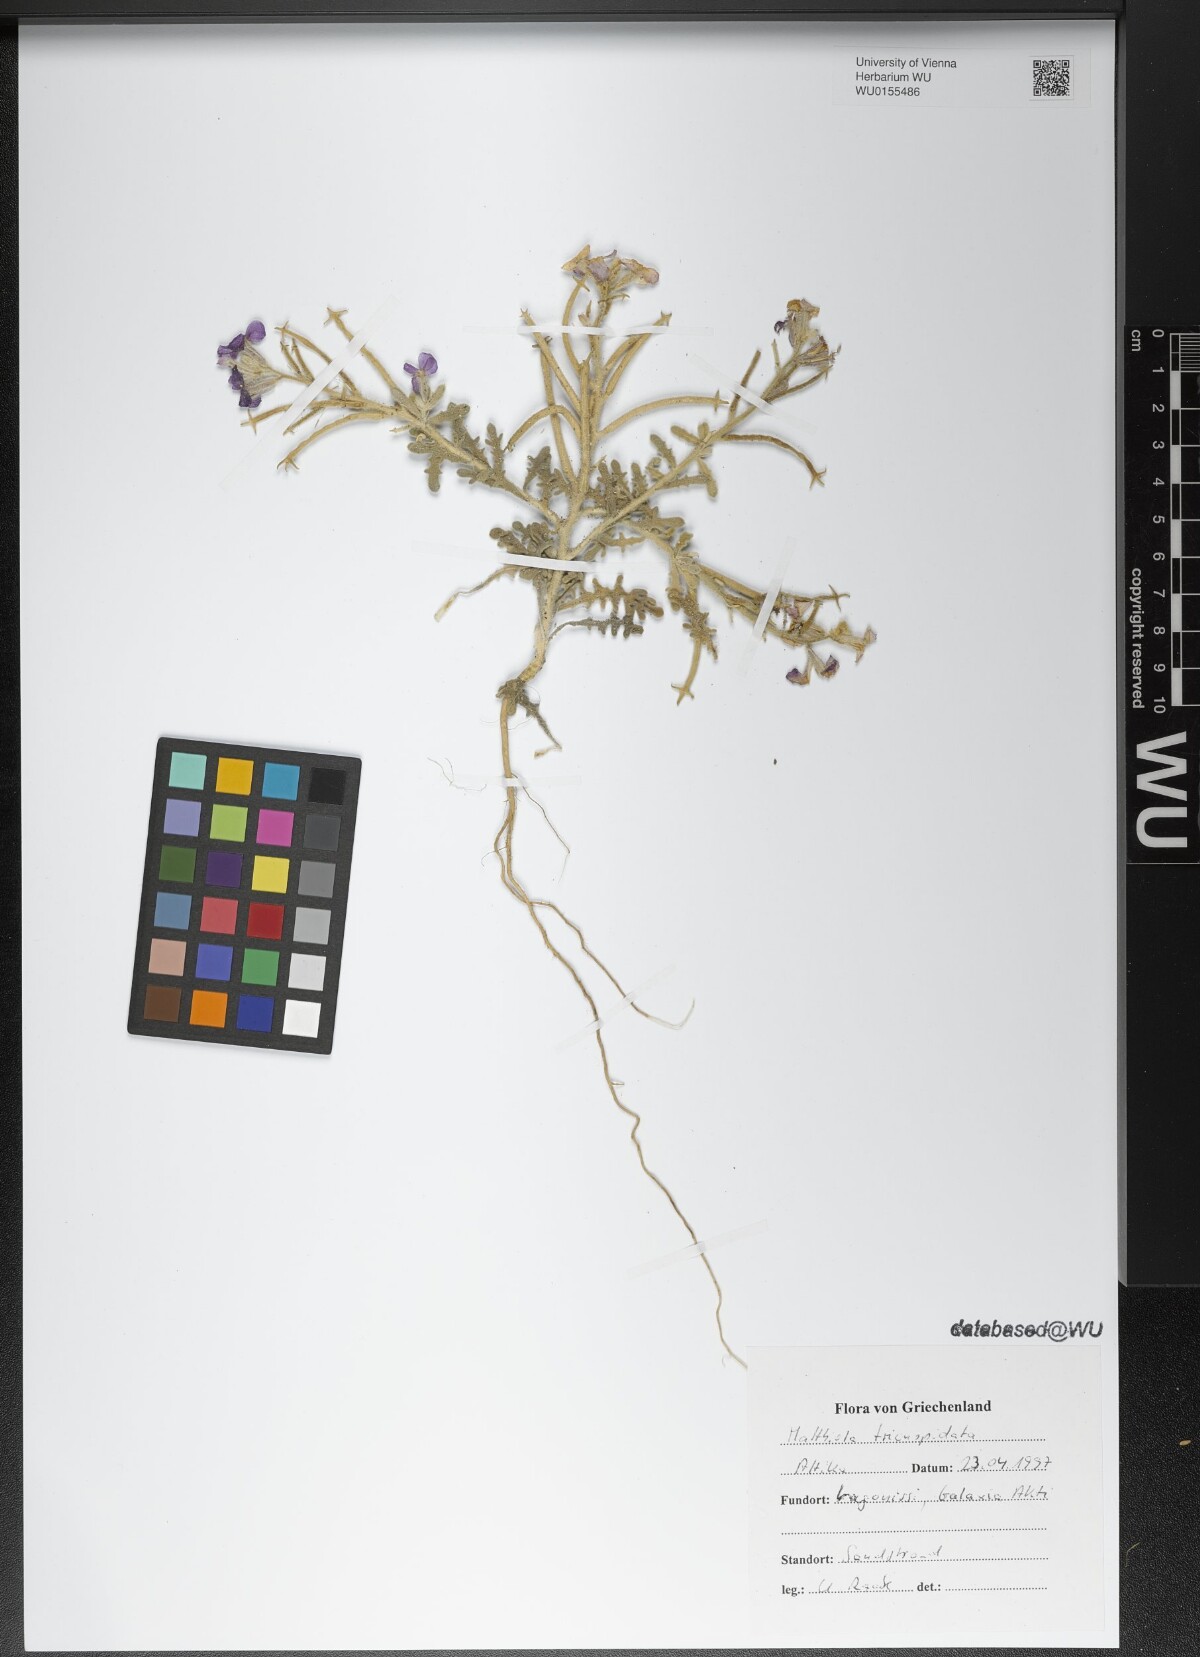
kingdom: Plantae
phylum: Tracheophyta
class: Magnoliopsida
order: Brassicales
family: Brassicaceae
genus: Matthiola
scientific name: Matthiola tricuspidata
